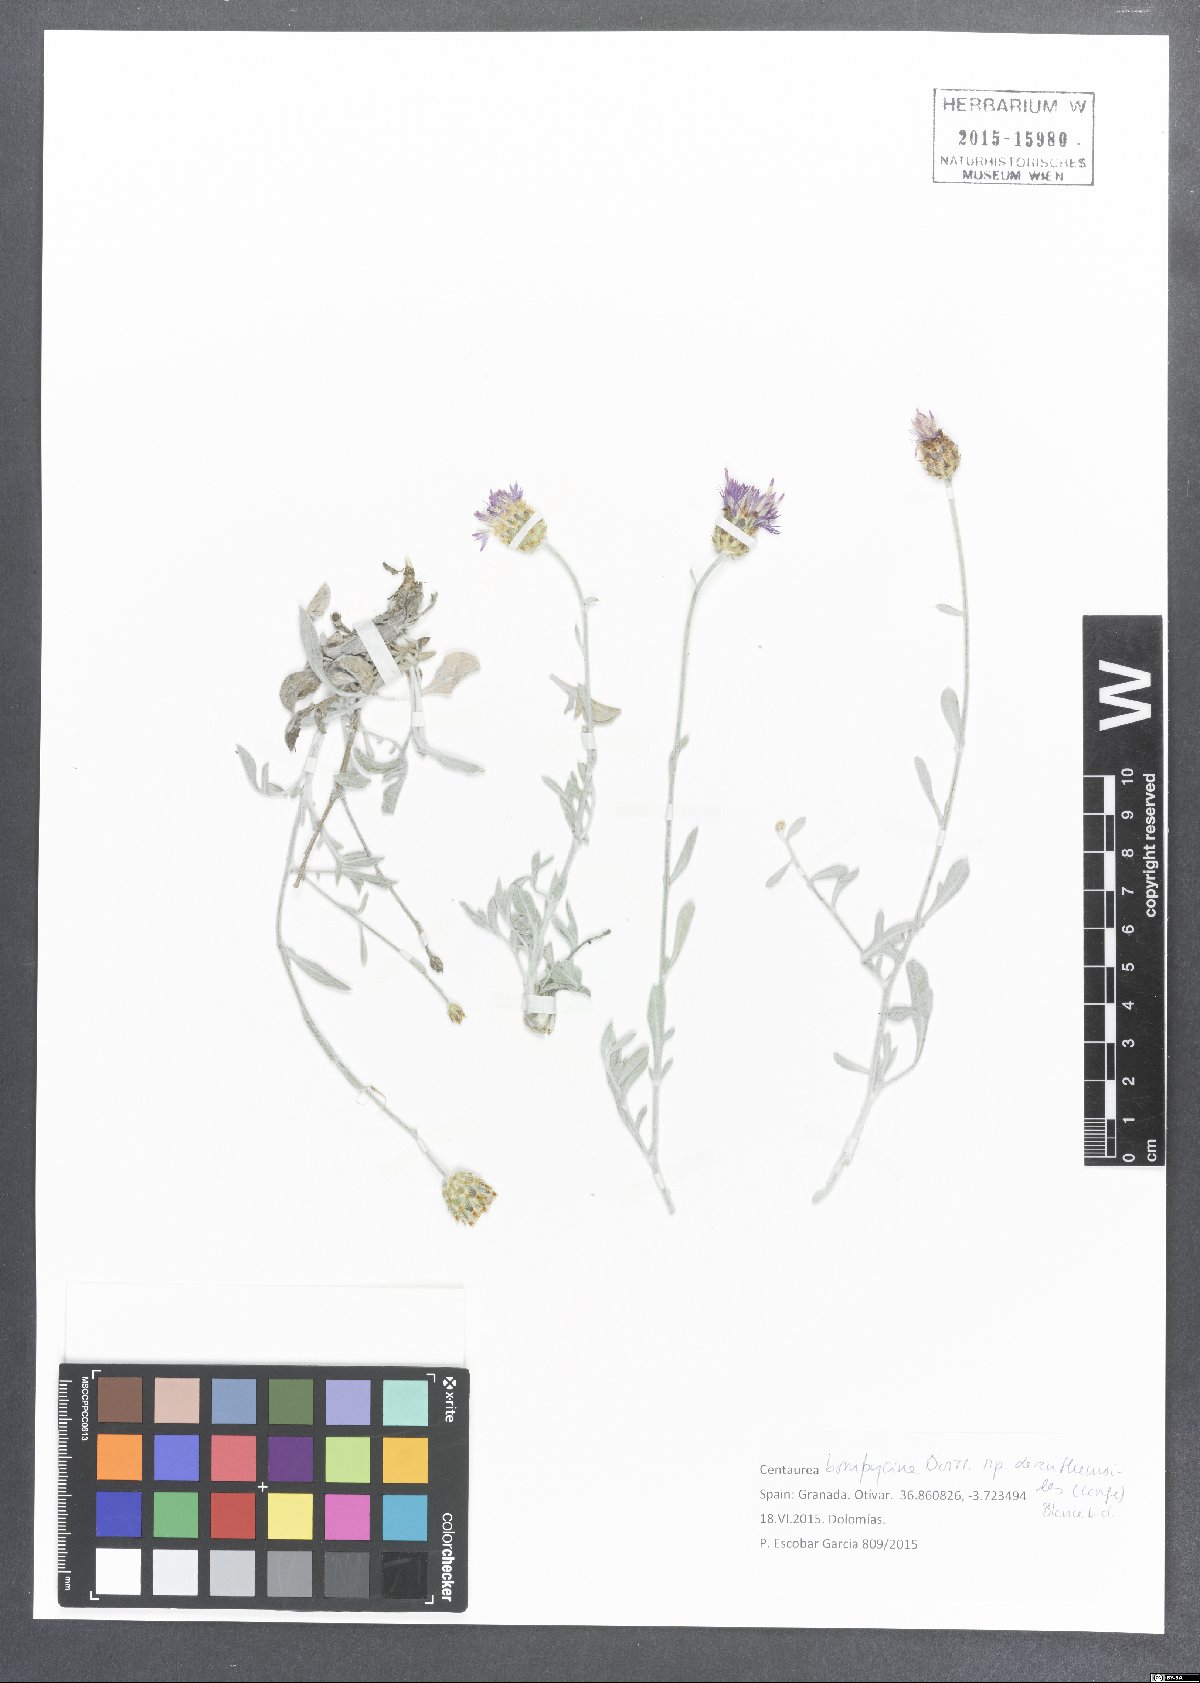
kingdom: Plantae
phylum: Tracheophyta
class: Magnoliopsida
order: Asterales
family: Asteraceae
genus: Centaurea
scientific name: Centaurea bombycina
